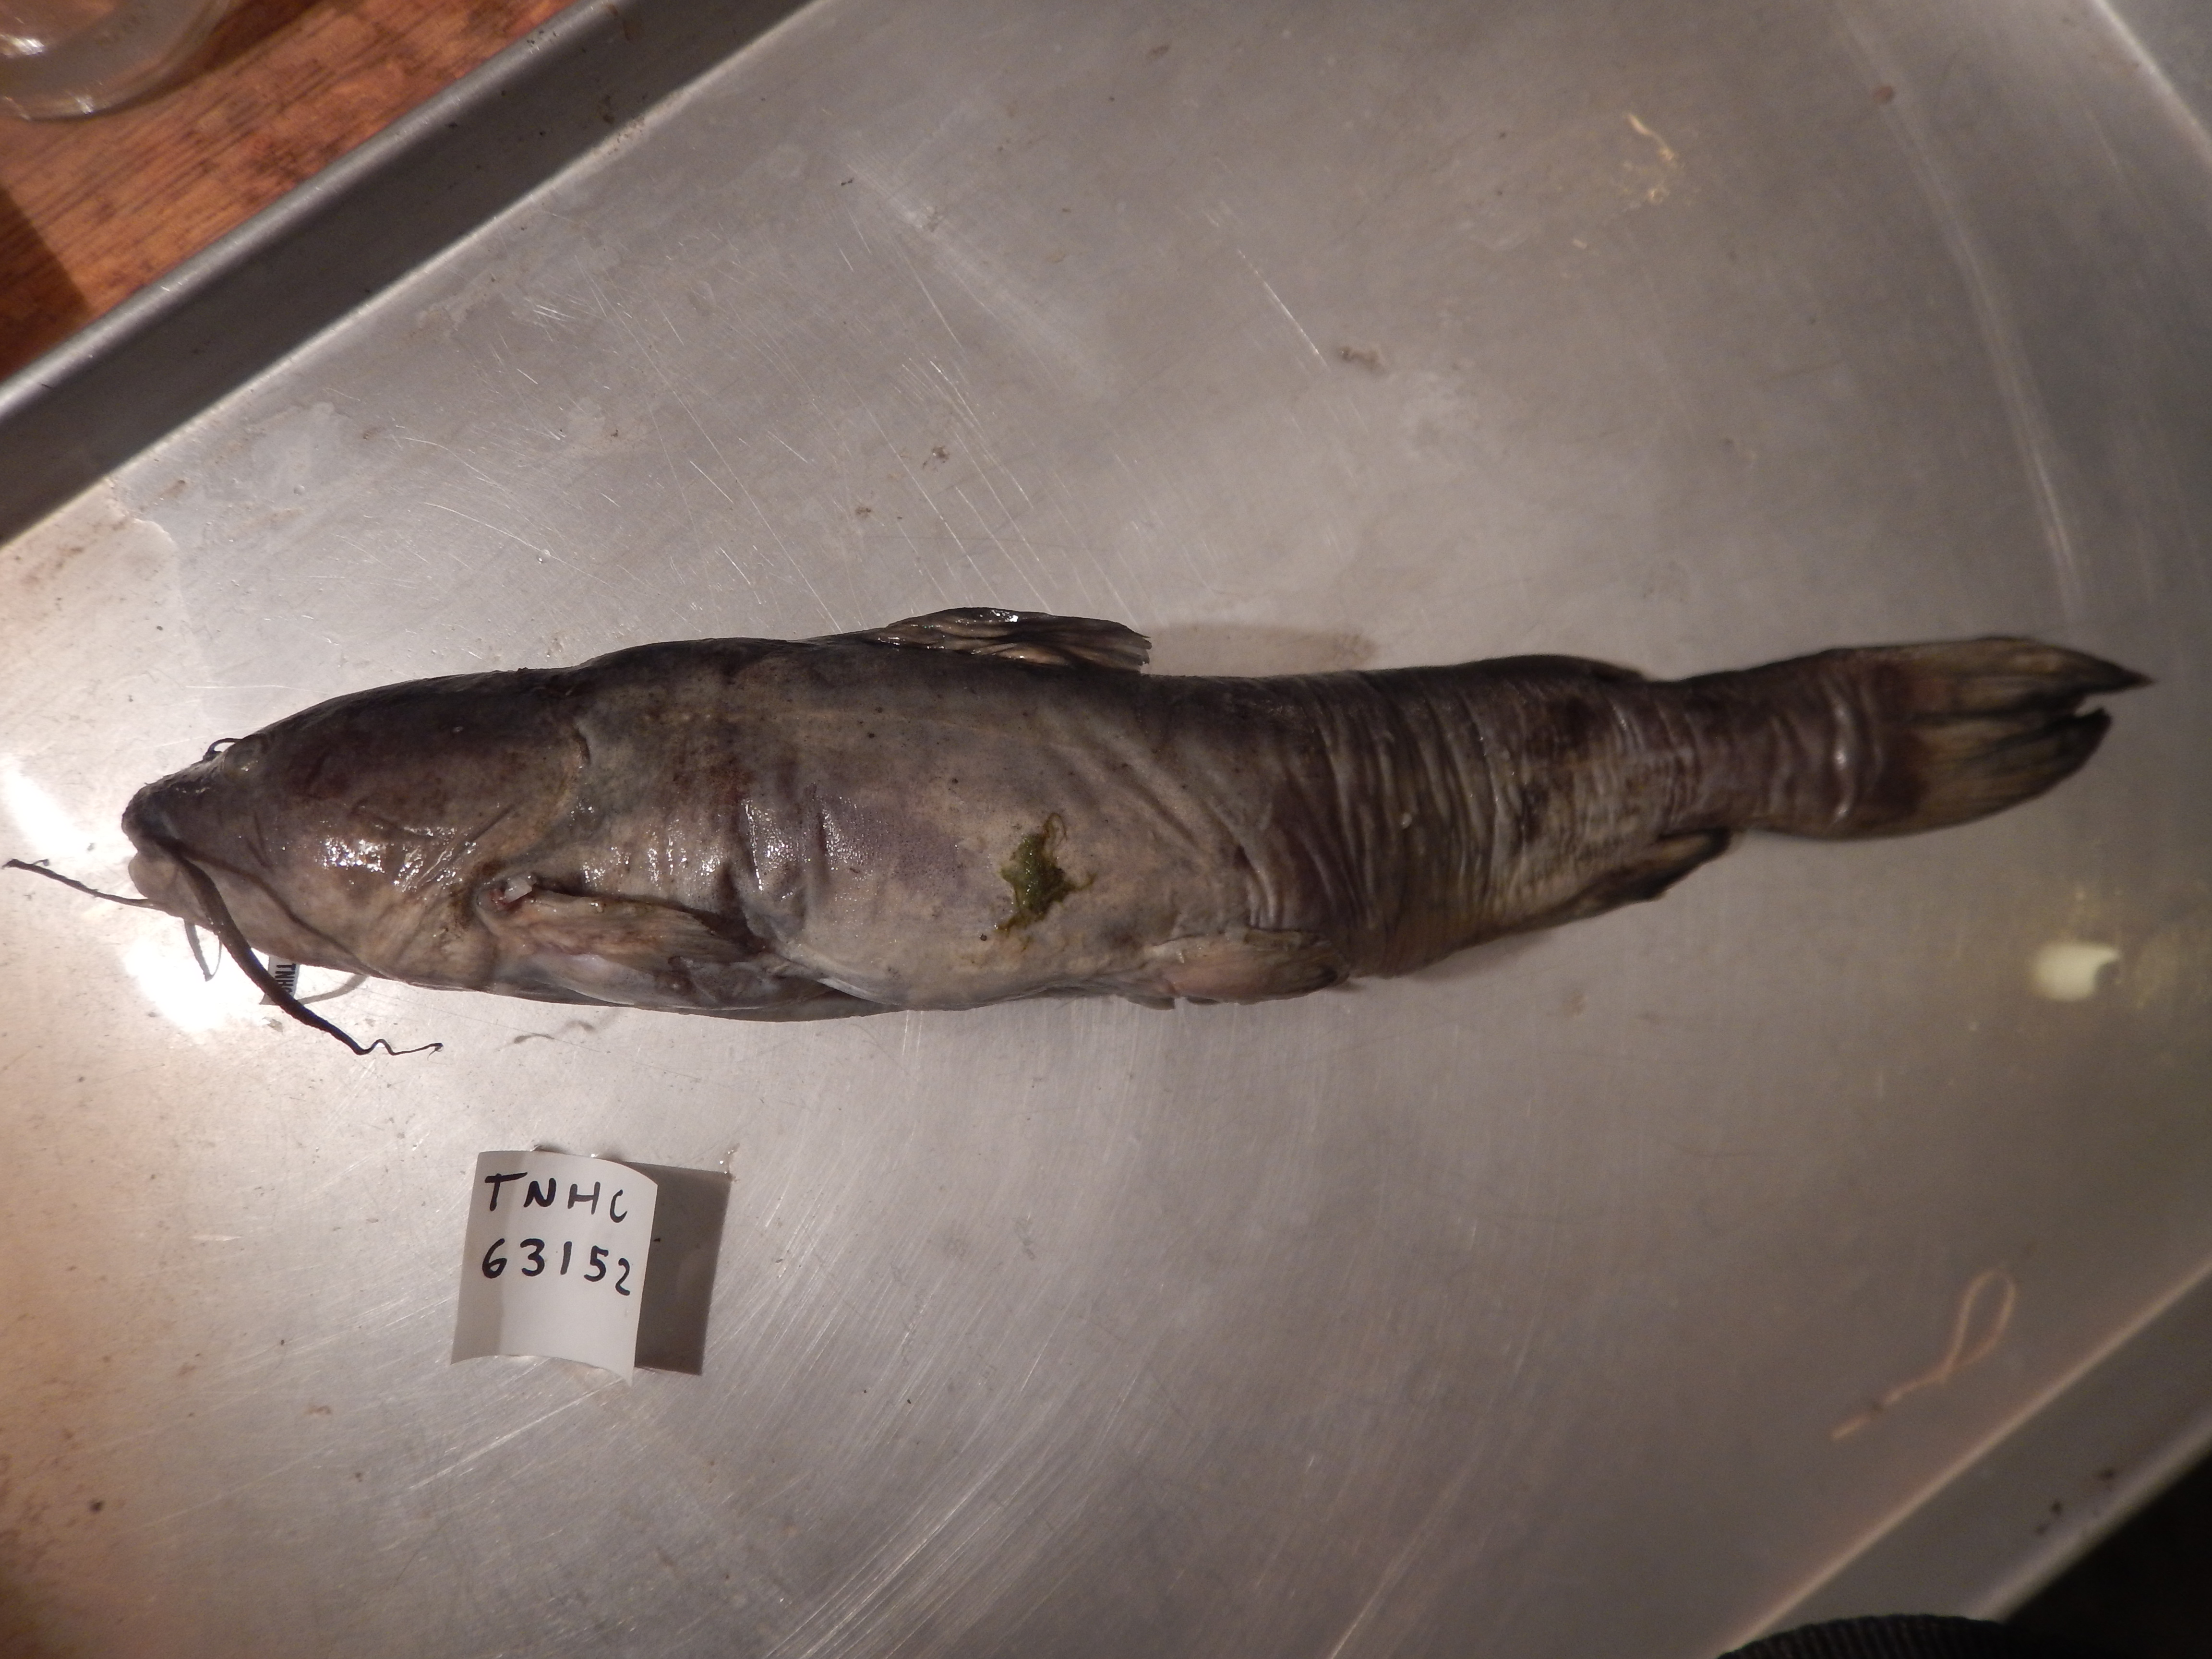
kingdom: Animalia
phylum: Chordata
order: Siluriformes
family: Ictaluridae
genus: Ictalurus
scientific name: Ictalurus pricei
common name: Yaqui catfish
